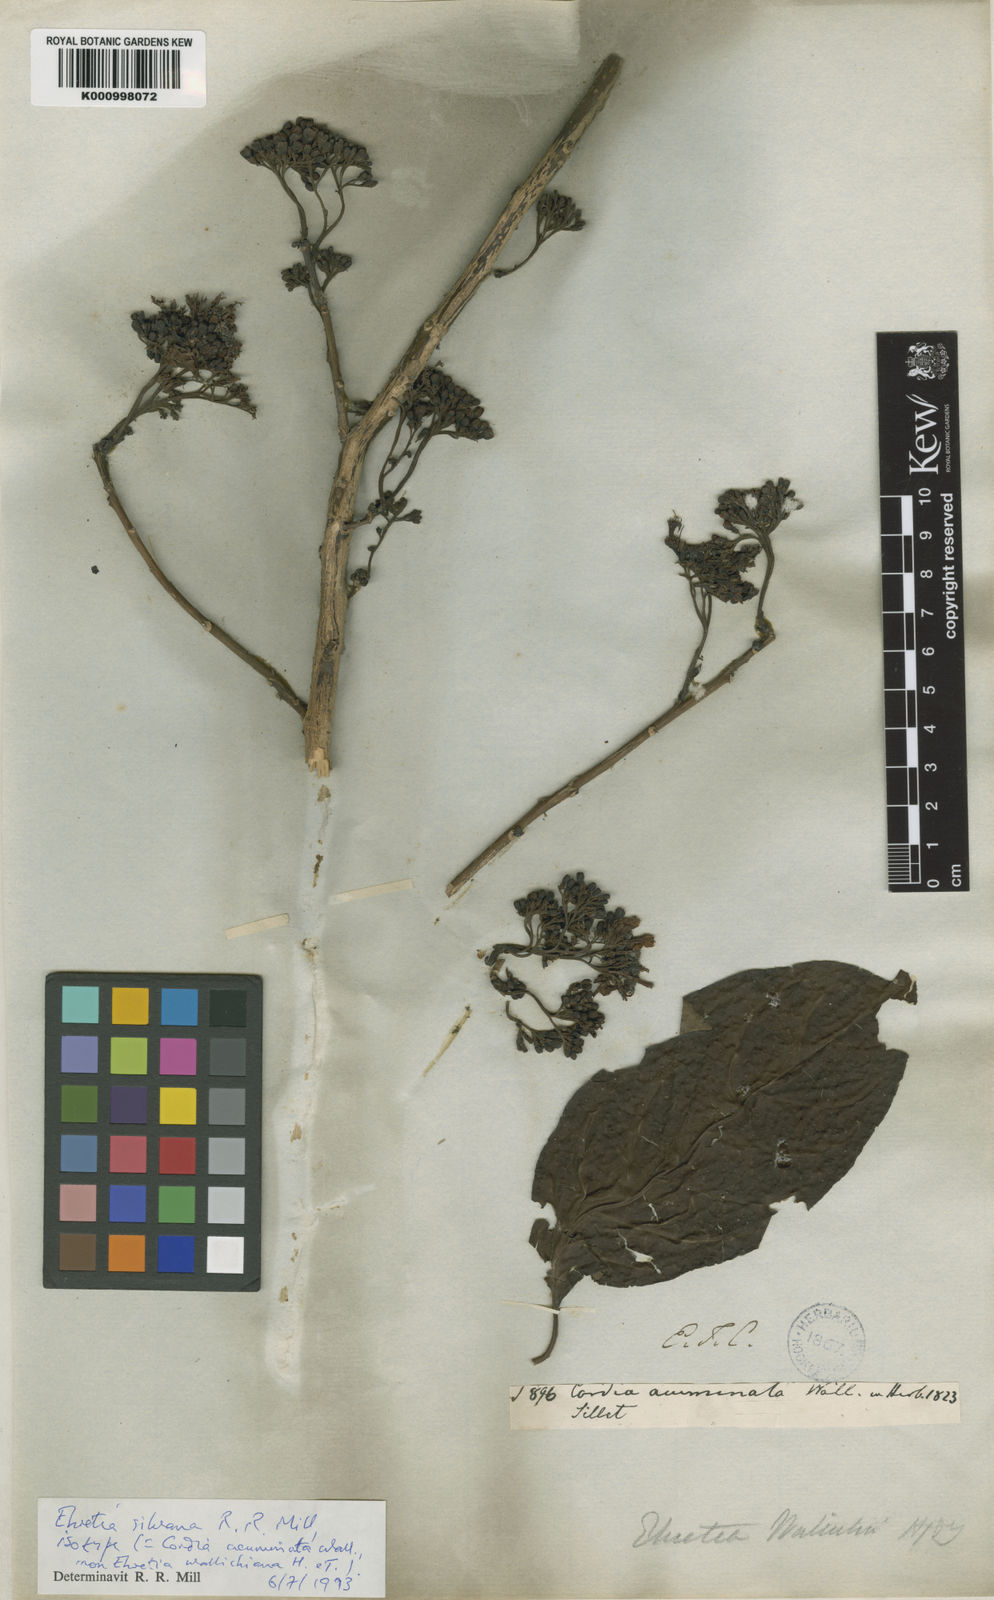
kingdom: Plantae
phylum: Tracheophyta
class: Magnoliopsida
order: Boraginales
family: Ehretiaceae
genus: Ehretia
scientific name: Ehretia wallichiana
